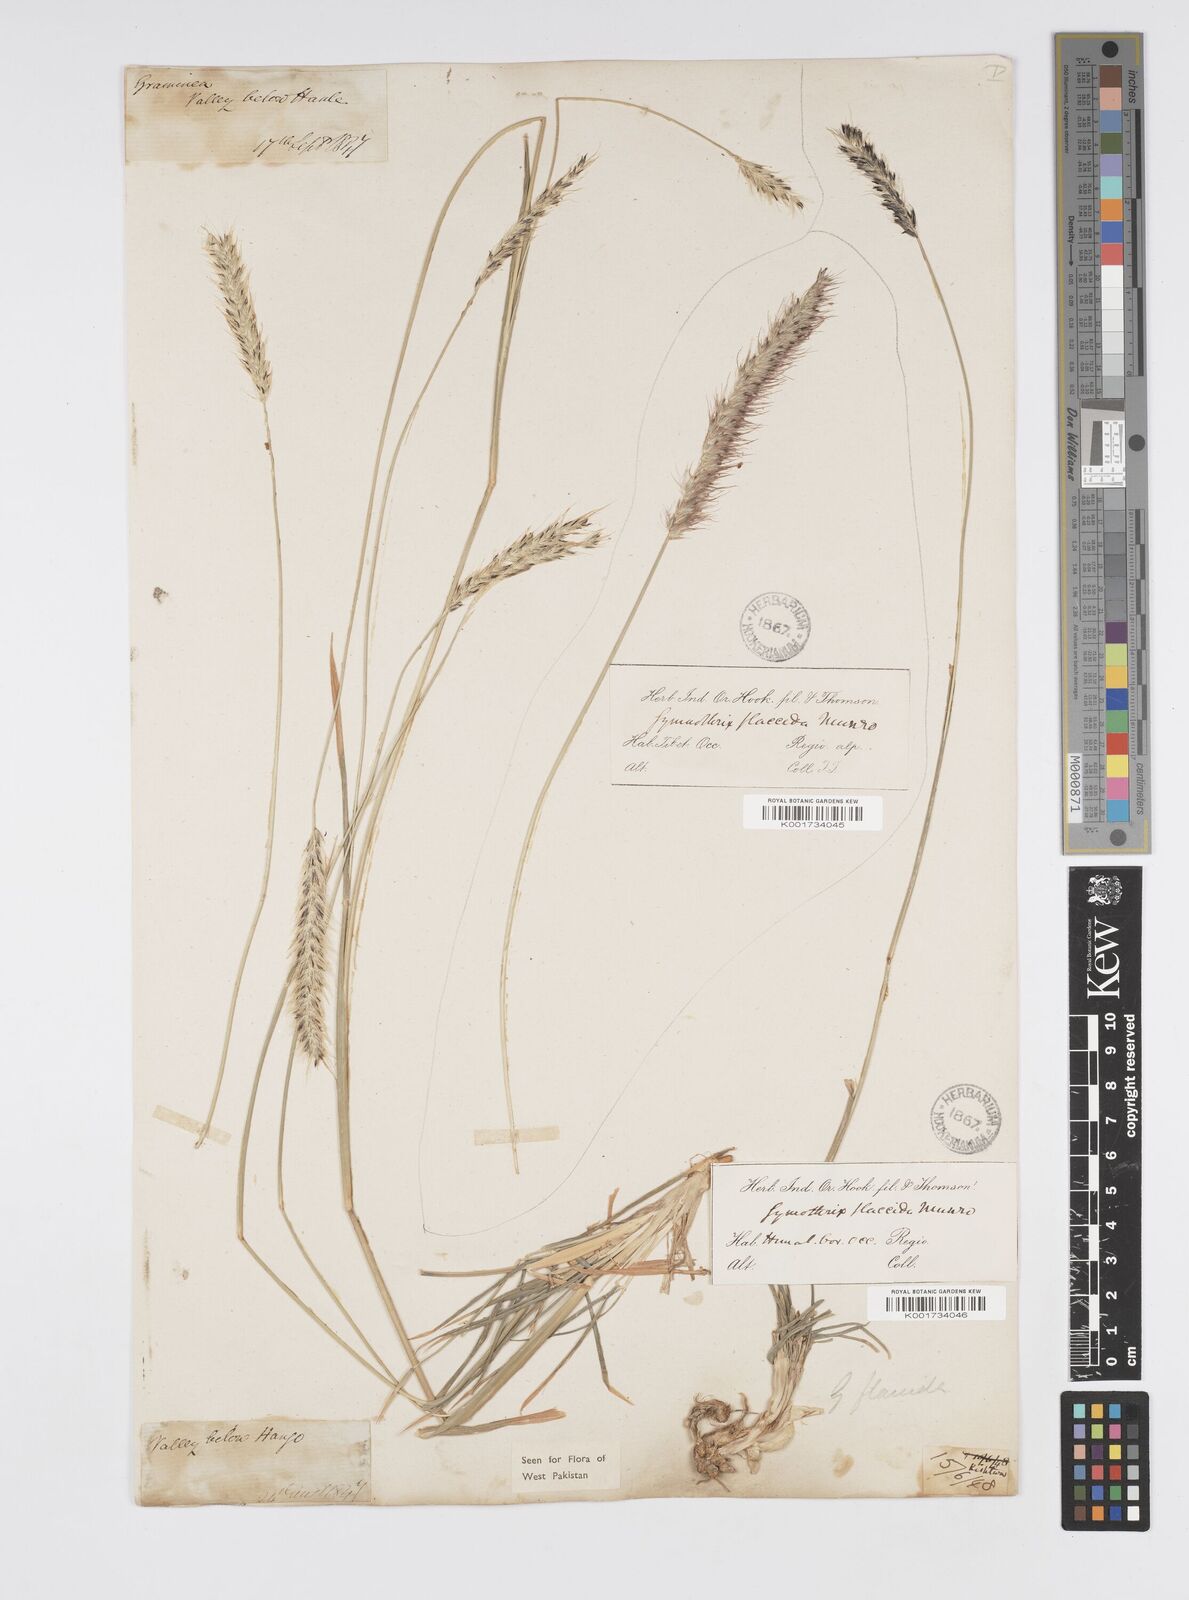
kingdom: Plantae
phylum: Tracheophyta
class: Liliopsida
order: Poales
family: Poaceae
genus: Cenchrus
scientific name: Cenchrus flaccidus
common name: Flaccid grass
